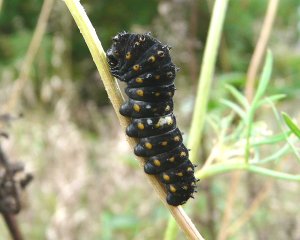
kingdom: Animalia
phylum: Arthropoda
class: Insecta
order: Lepidoptera
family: Papilionidae
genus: Papilio
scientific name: Papilio polyxenes
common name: Black Swallowtail
